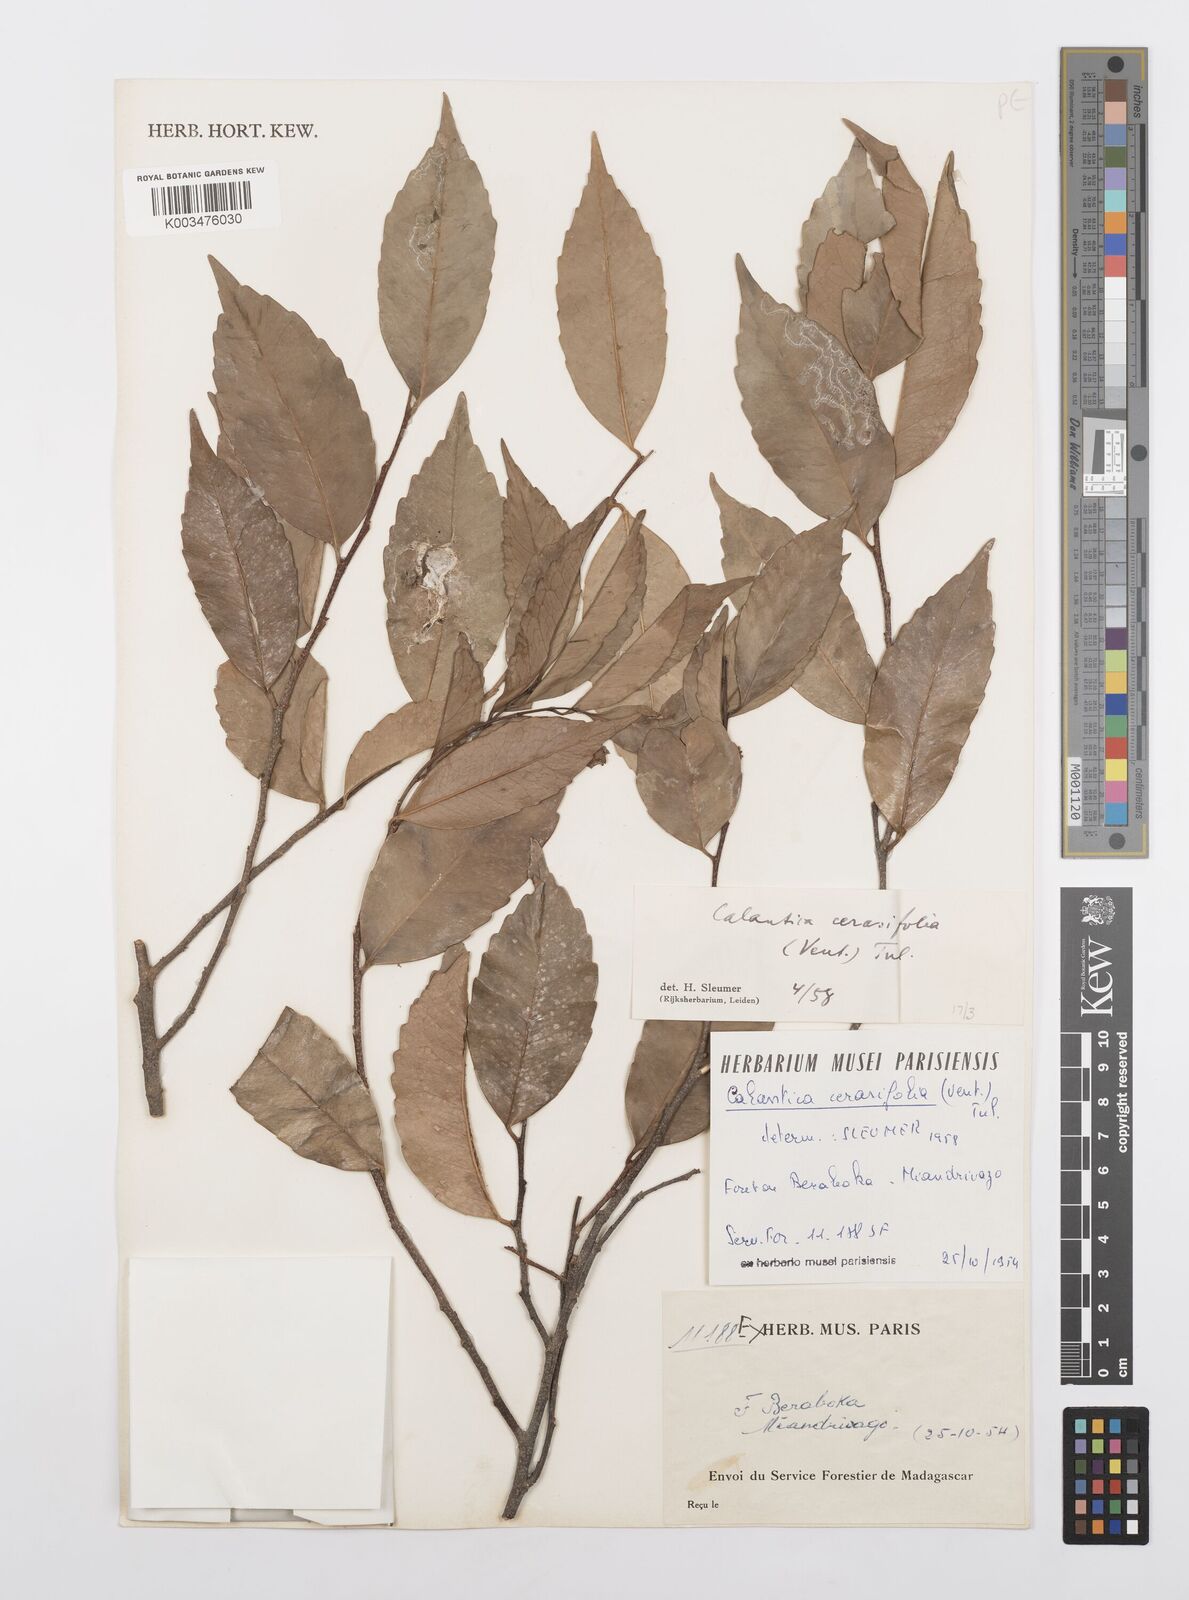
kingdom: Plantae
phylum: Tracheophyta
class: Magnoliopsida
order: Malpighiales
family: Salicaceae
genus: Calantica
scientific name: Calantica cerasifolia
